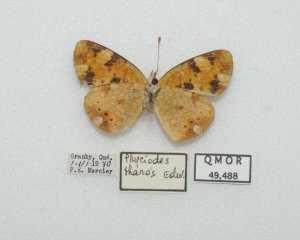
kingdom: Animalia
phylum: Arthropoda
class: Insecta
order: Lepidoptera
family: Nymphalidae
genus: Phyciodes
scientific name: Phyciodes tharos
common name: Northern Crescent
